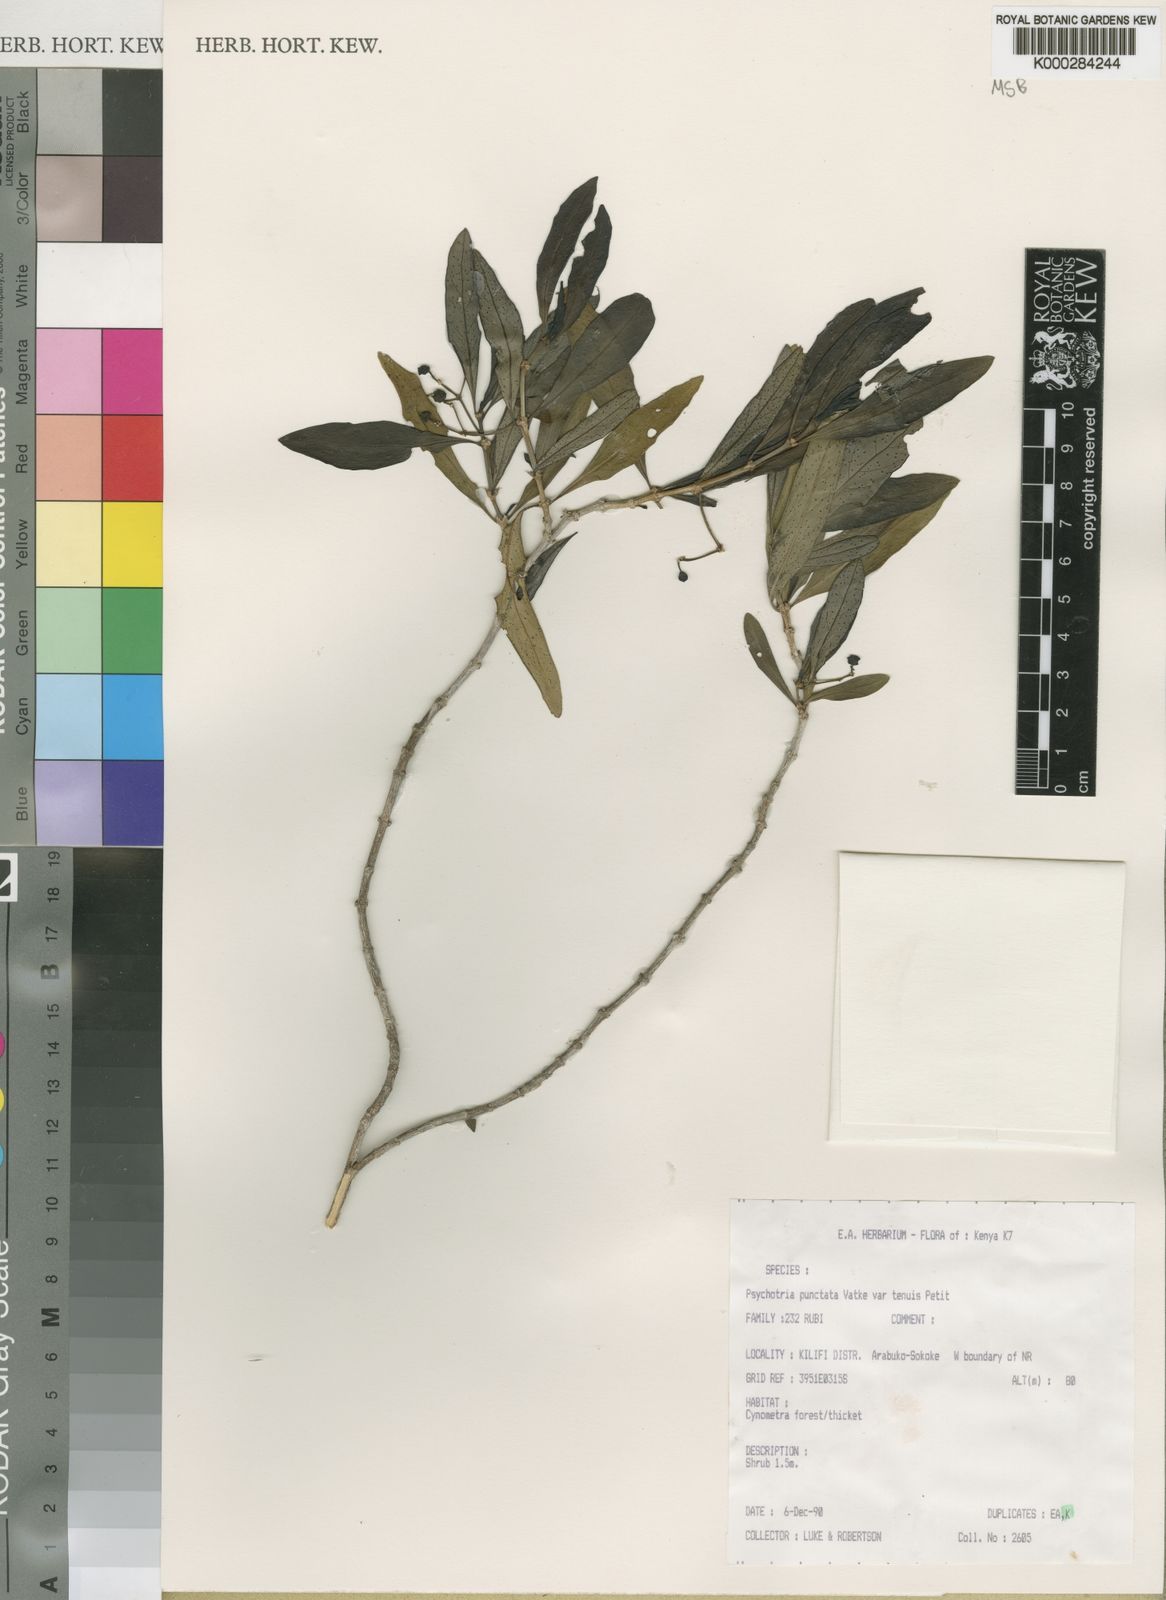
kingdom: Plantae
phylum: Tracheophyta
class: Magnoliopsida
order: Gentianales
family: Rubiaceae
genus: Psychotria
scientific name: Psychotria punctata
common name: Dotted wild coffee
